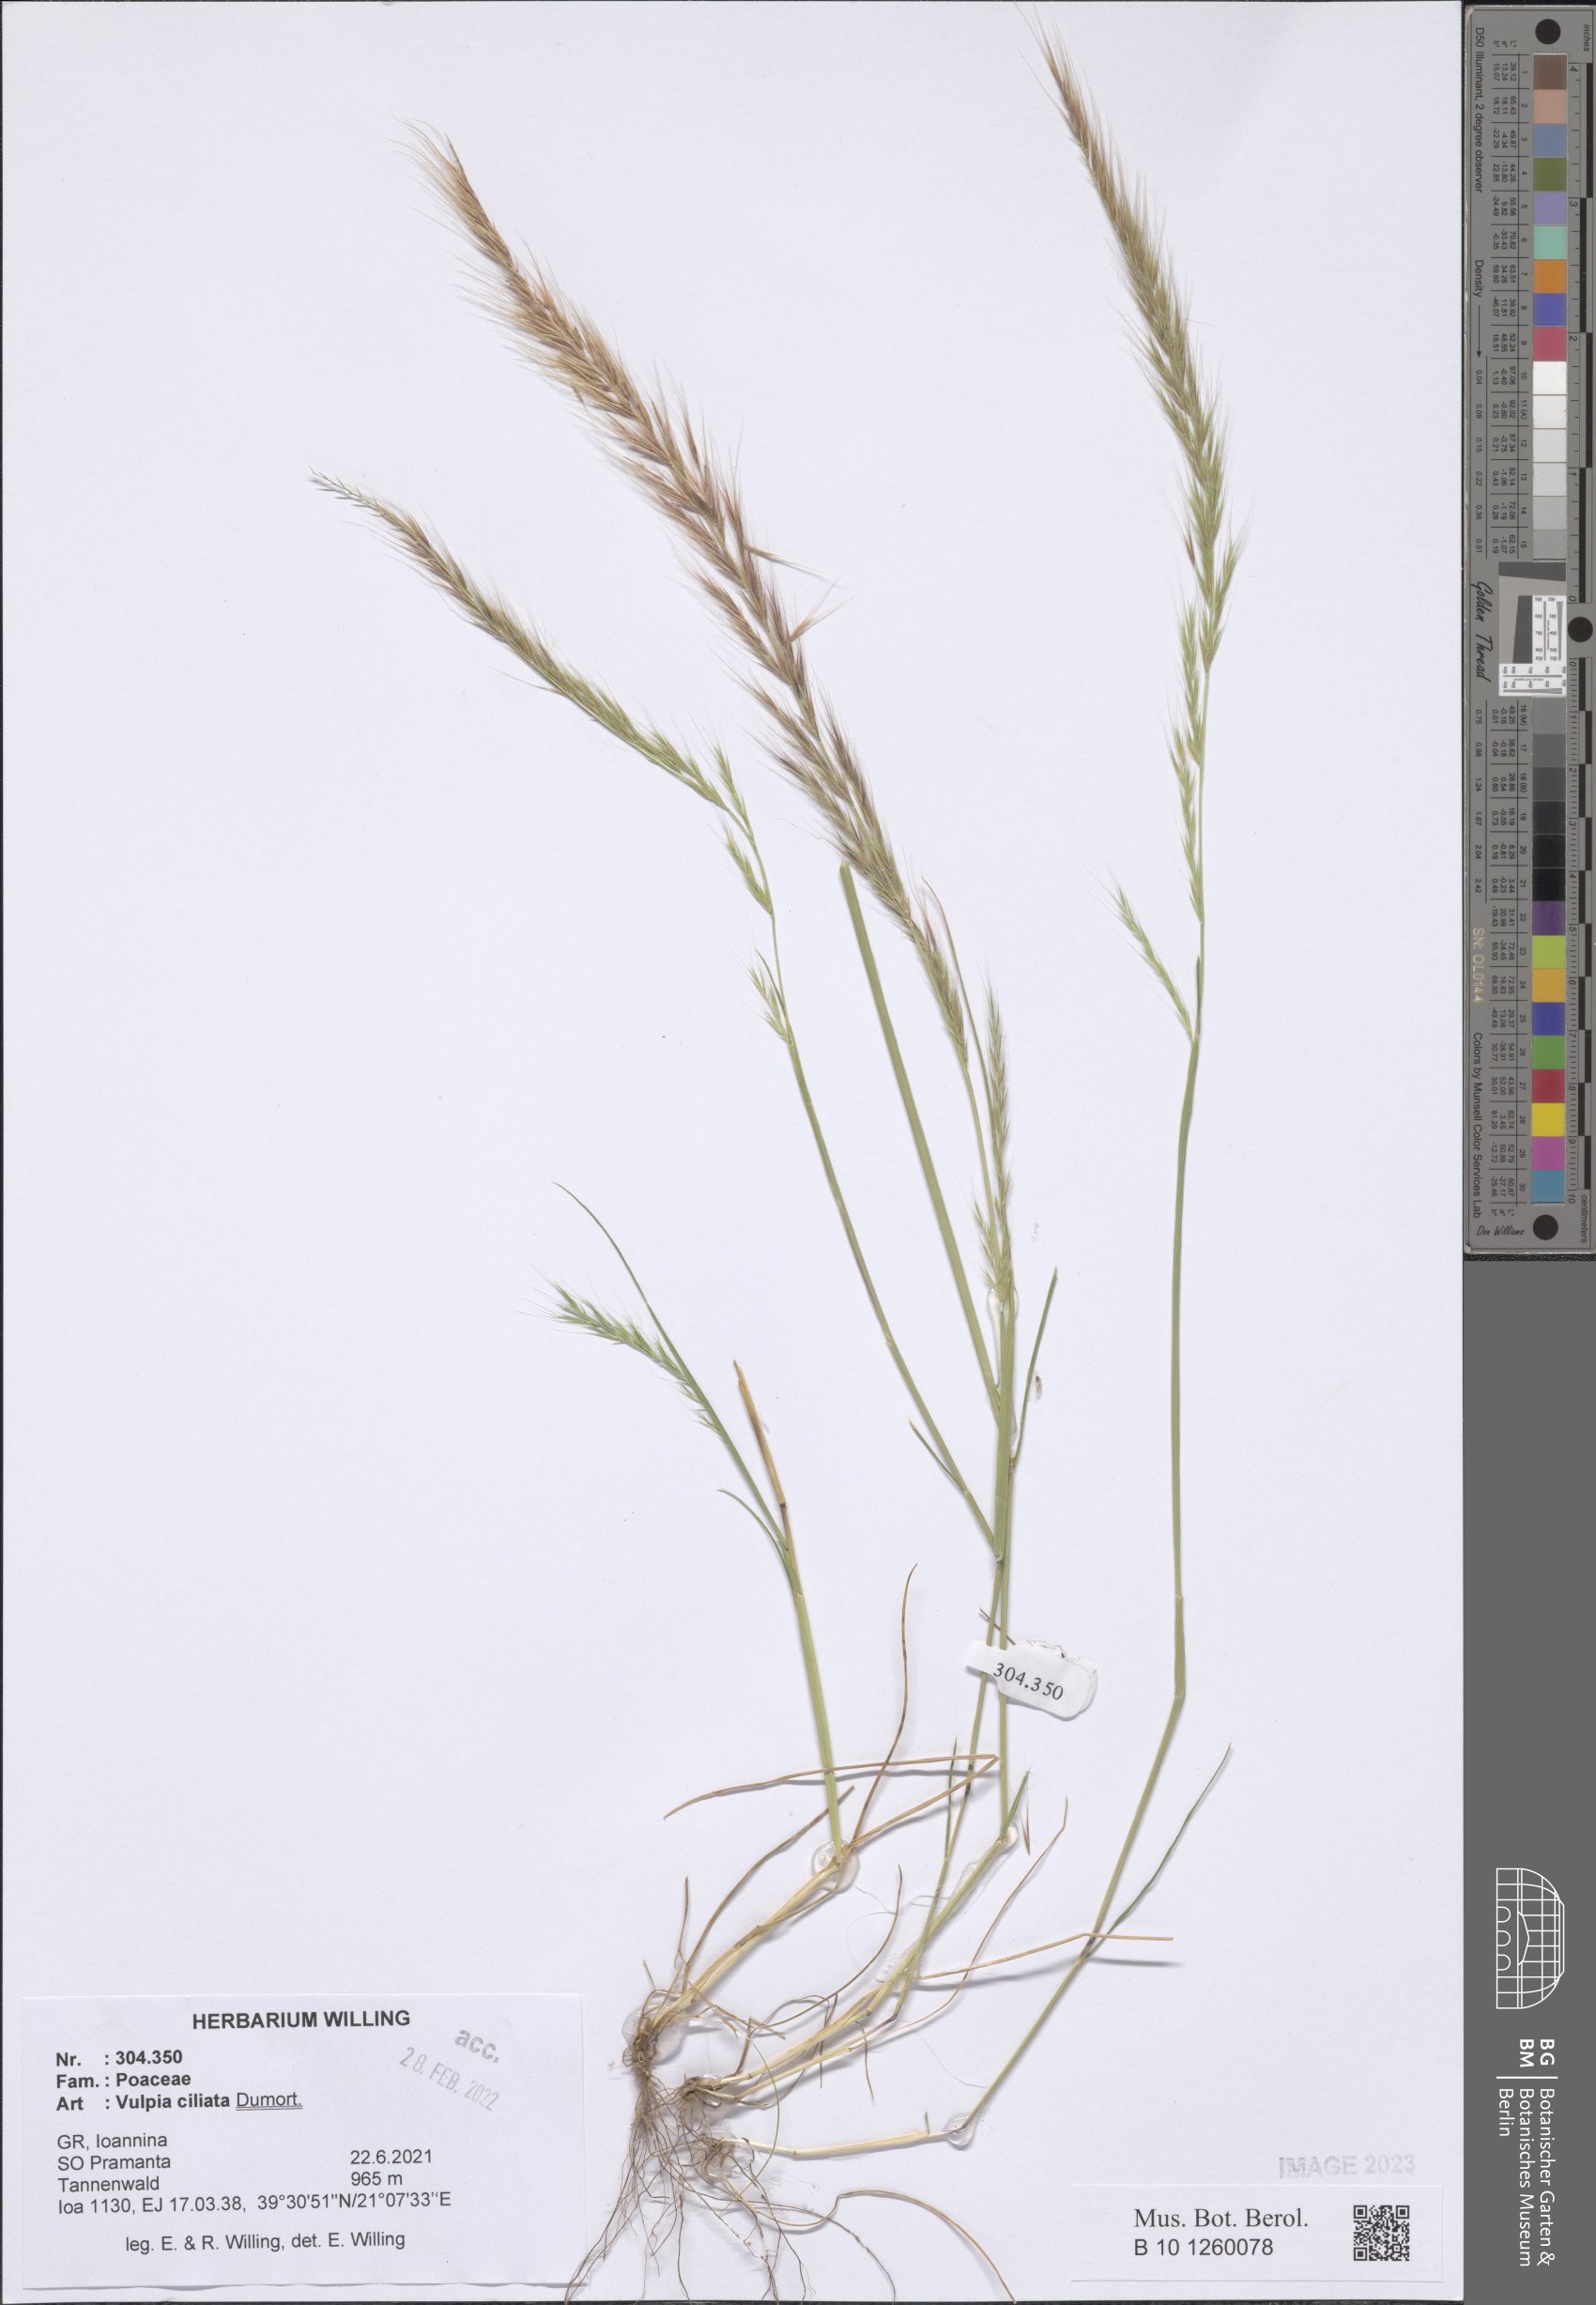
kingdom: Plantae
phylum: Tracheophyta
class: Liliopsida
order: Poales
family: Poaceae
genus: Festuca
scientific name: Festuca ambigua
